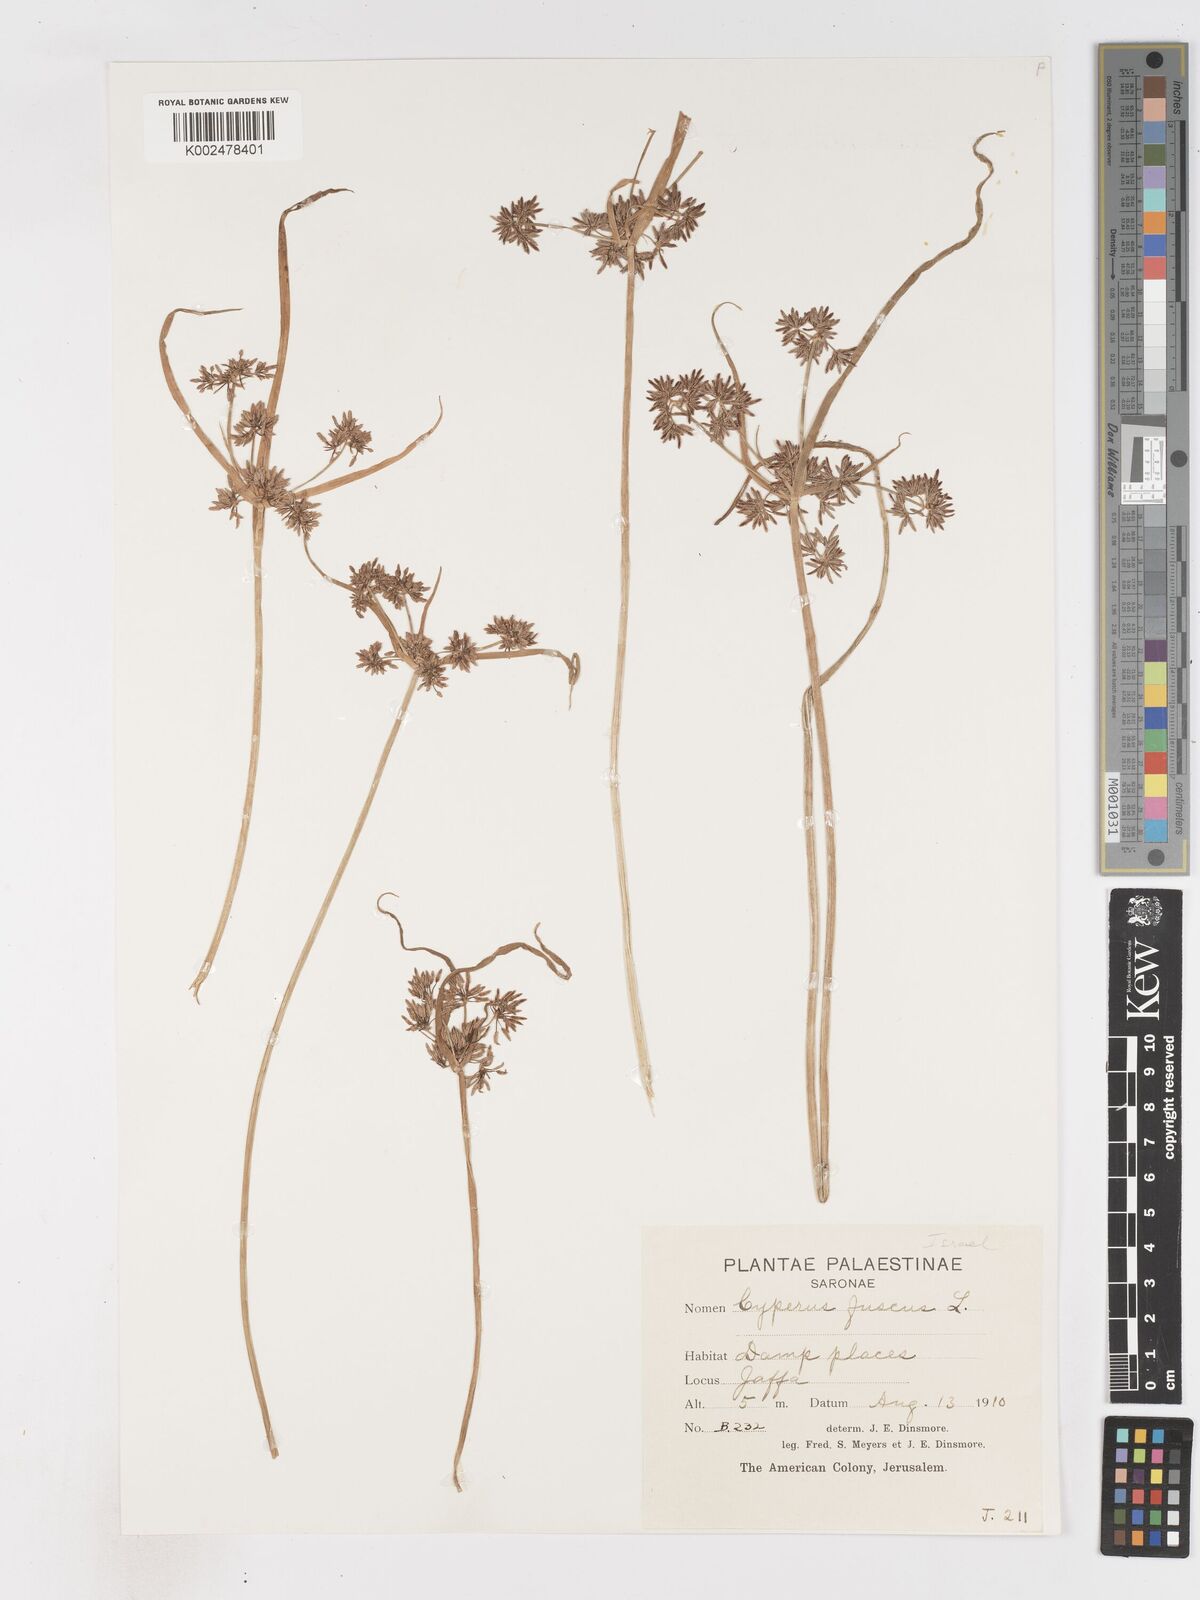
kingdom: Plantae
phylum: Tracheophyta
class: Liliopsida
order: Poales
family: Cyperaceae
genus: Cyperus
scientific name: Cyperus fuscus
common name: Brown galingale
